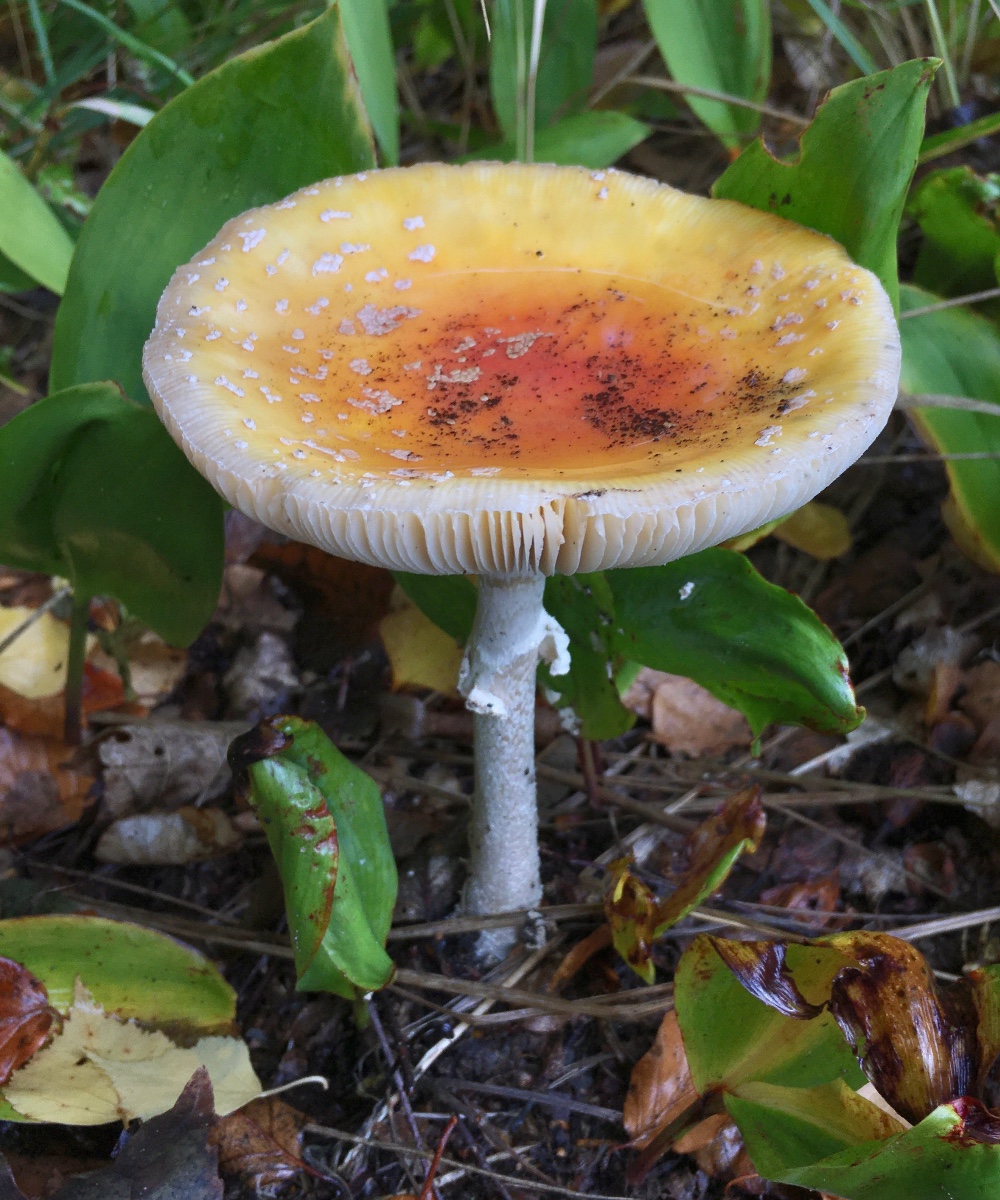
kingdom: Fungi
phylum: Basidiomycota
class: Agaricomycetes
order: Agaricales
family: Amanitaceae
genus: Amanita
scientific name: Amanita muscaria
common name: rød fluesvamp
